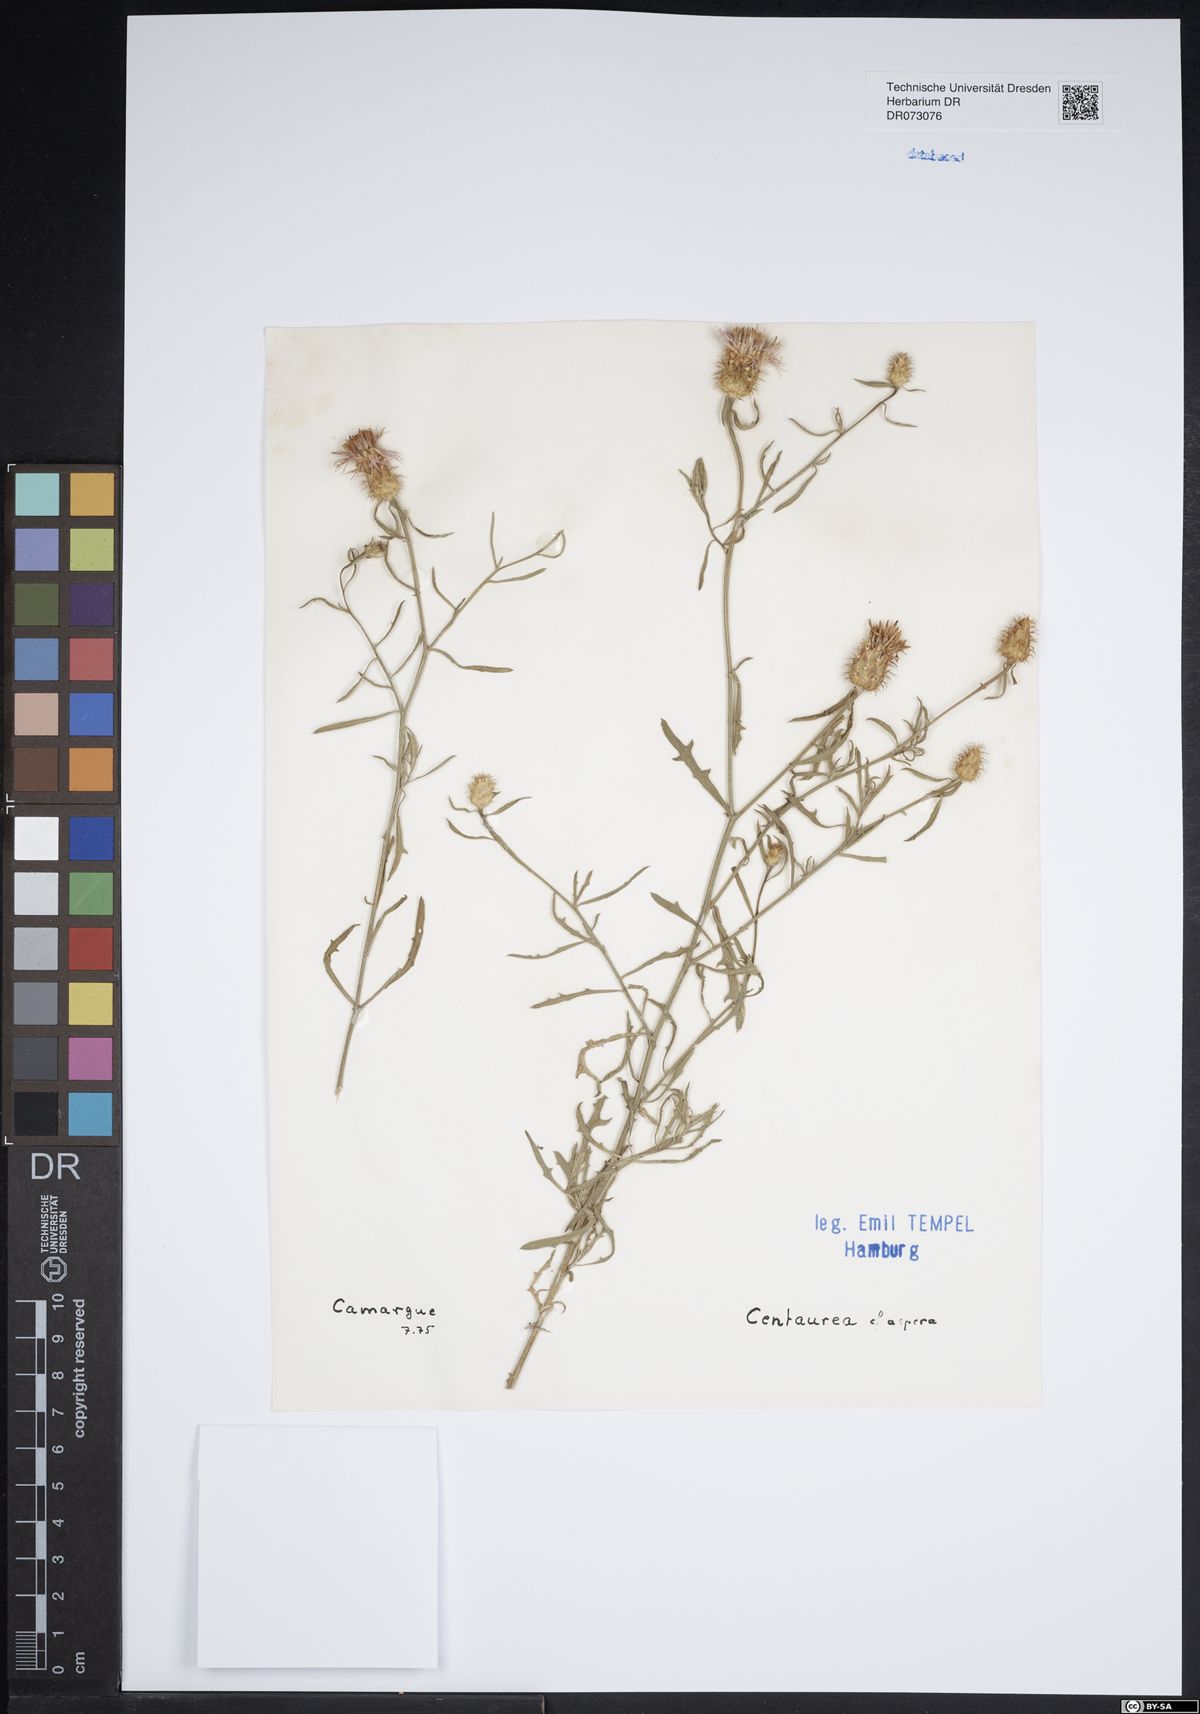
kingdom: Plantae
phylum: Tracheophyta
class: Magnoliopsida
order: Asterales
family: Asteraceae
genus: Ambrosia
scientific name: Ambrosia psilostachya
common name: Perennial ragweed
